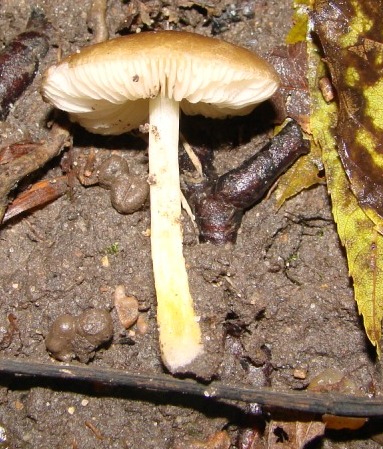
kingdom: Fungi
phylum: Basidiomycota
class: Agaricomycetes
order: Agaricales
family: Pluteaceae
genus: Pluteus
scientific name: Pluteus romellii
